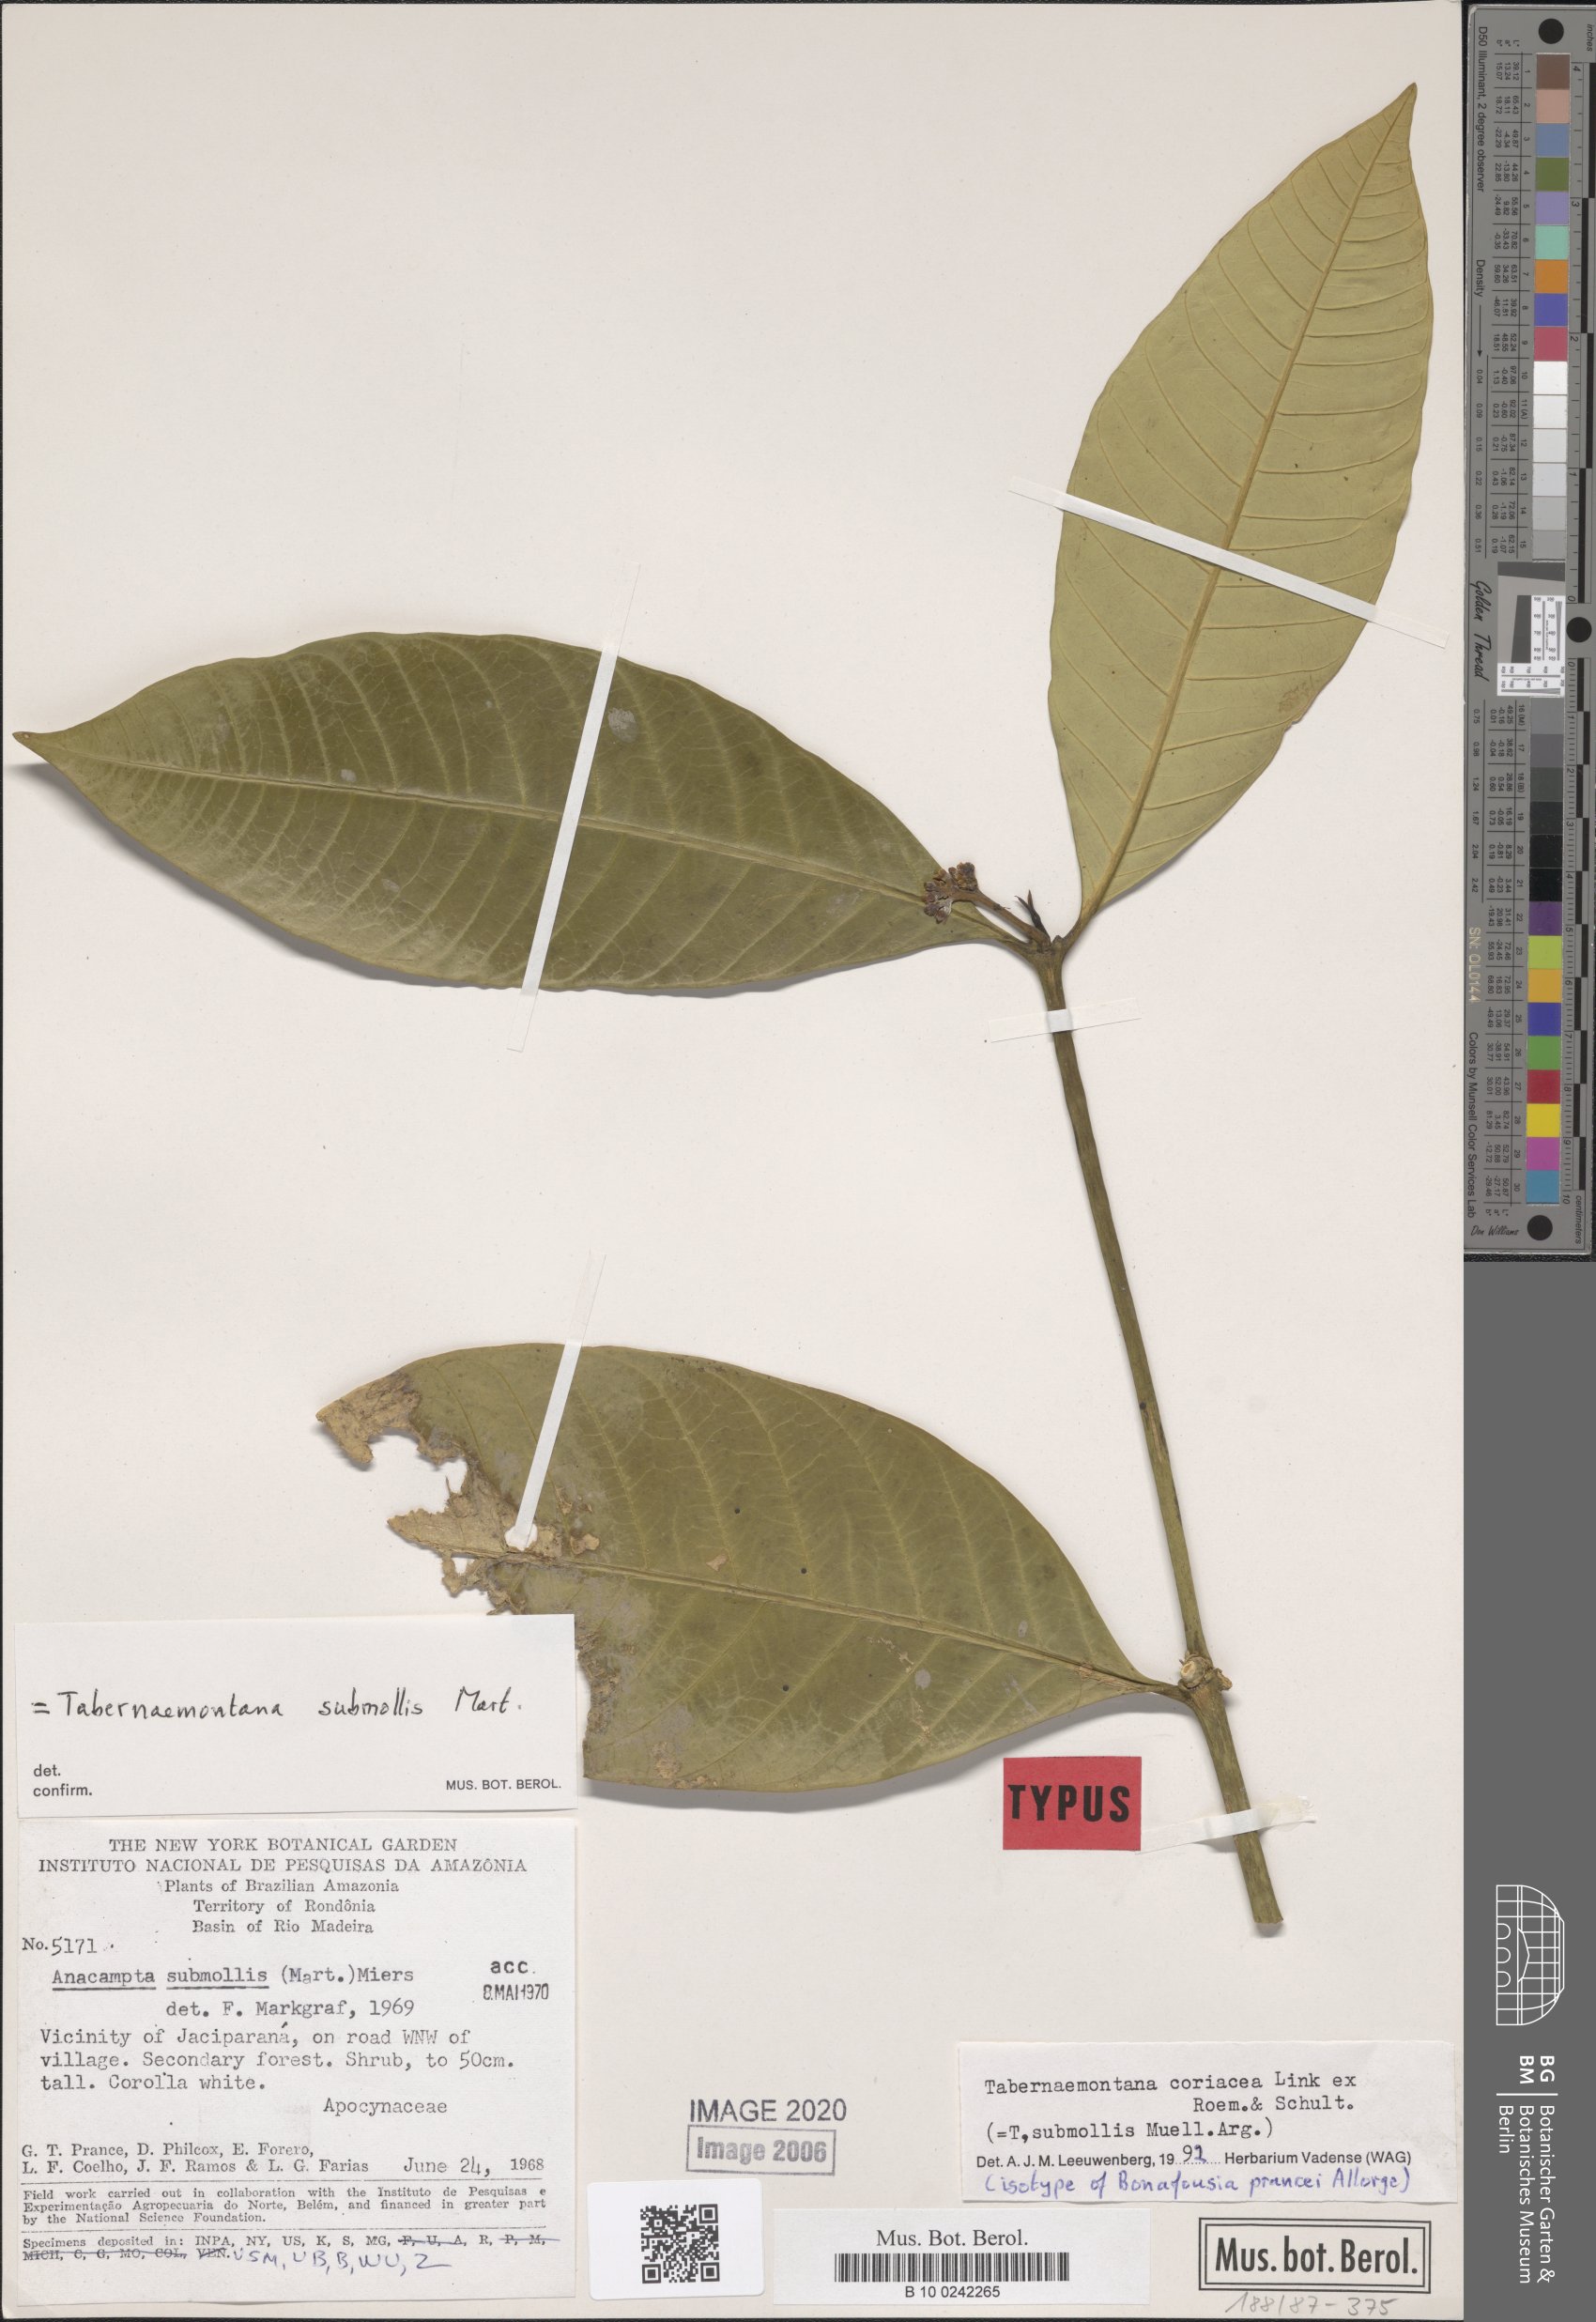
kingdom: Plantae
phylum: Tracheophyta
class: Magnoliopsida
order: Gentianales
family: Apocynaceae
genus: Tabernaemontana
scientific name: Tabernaemontana coriacea
